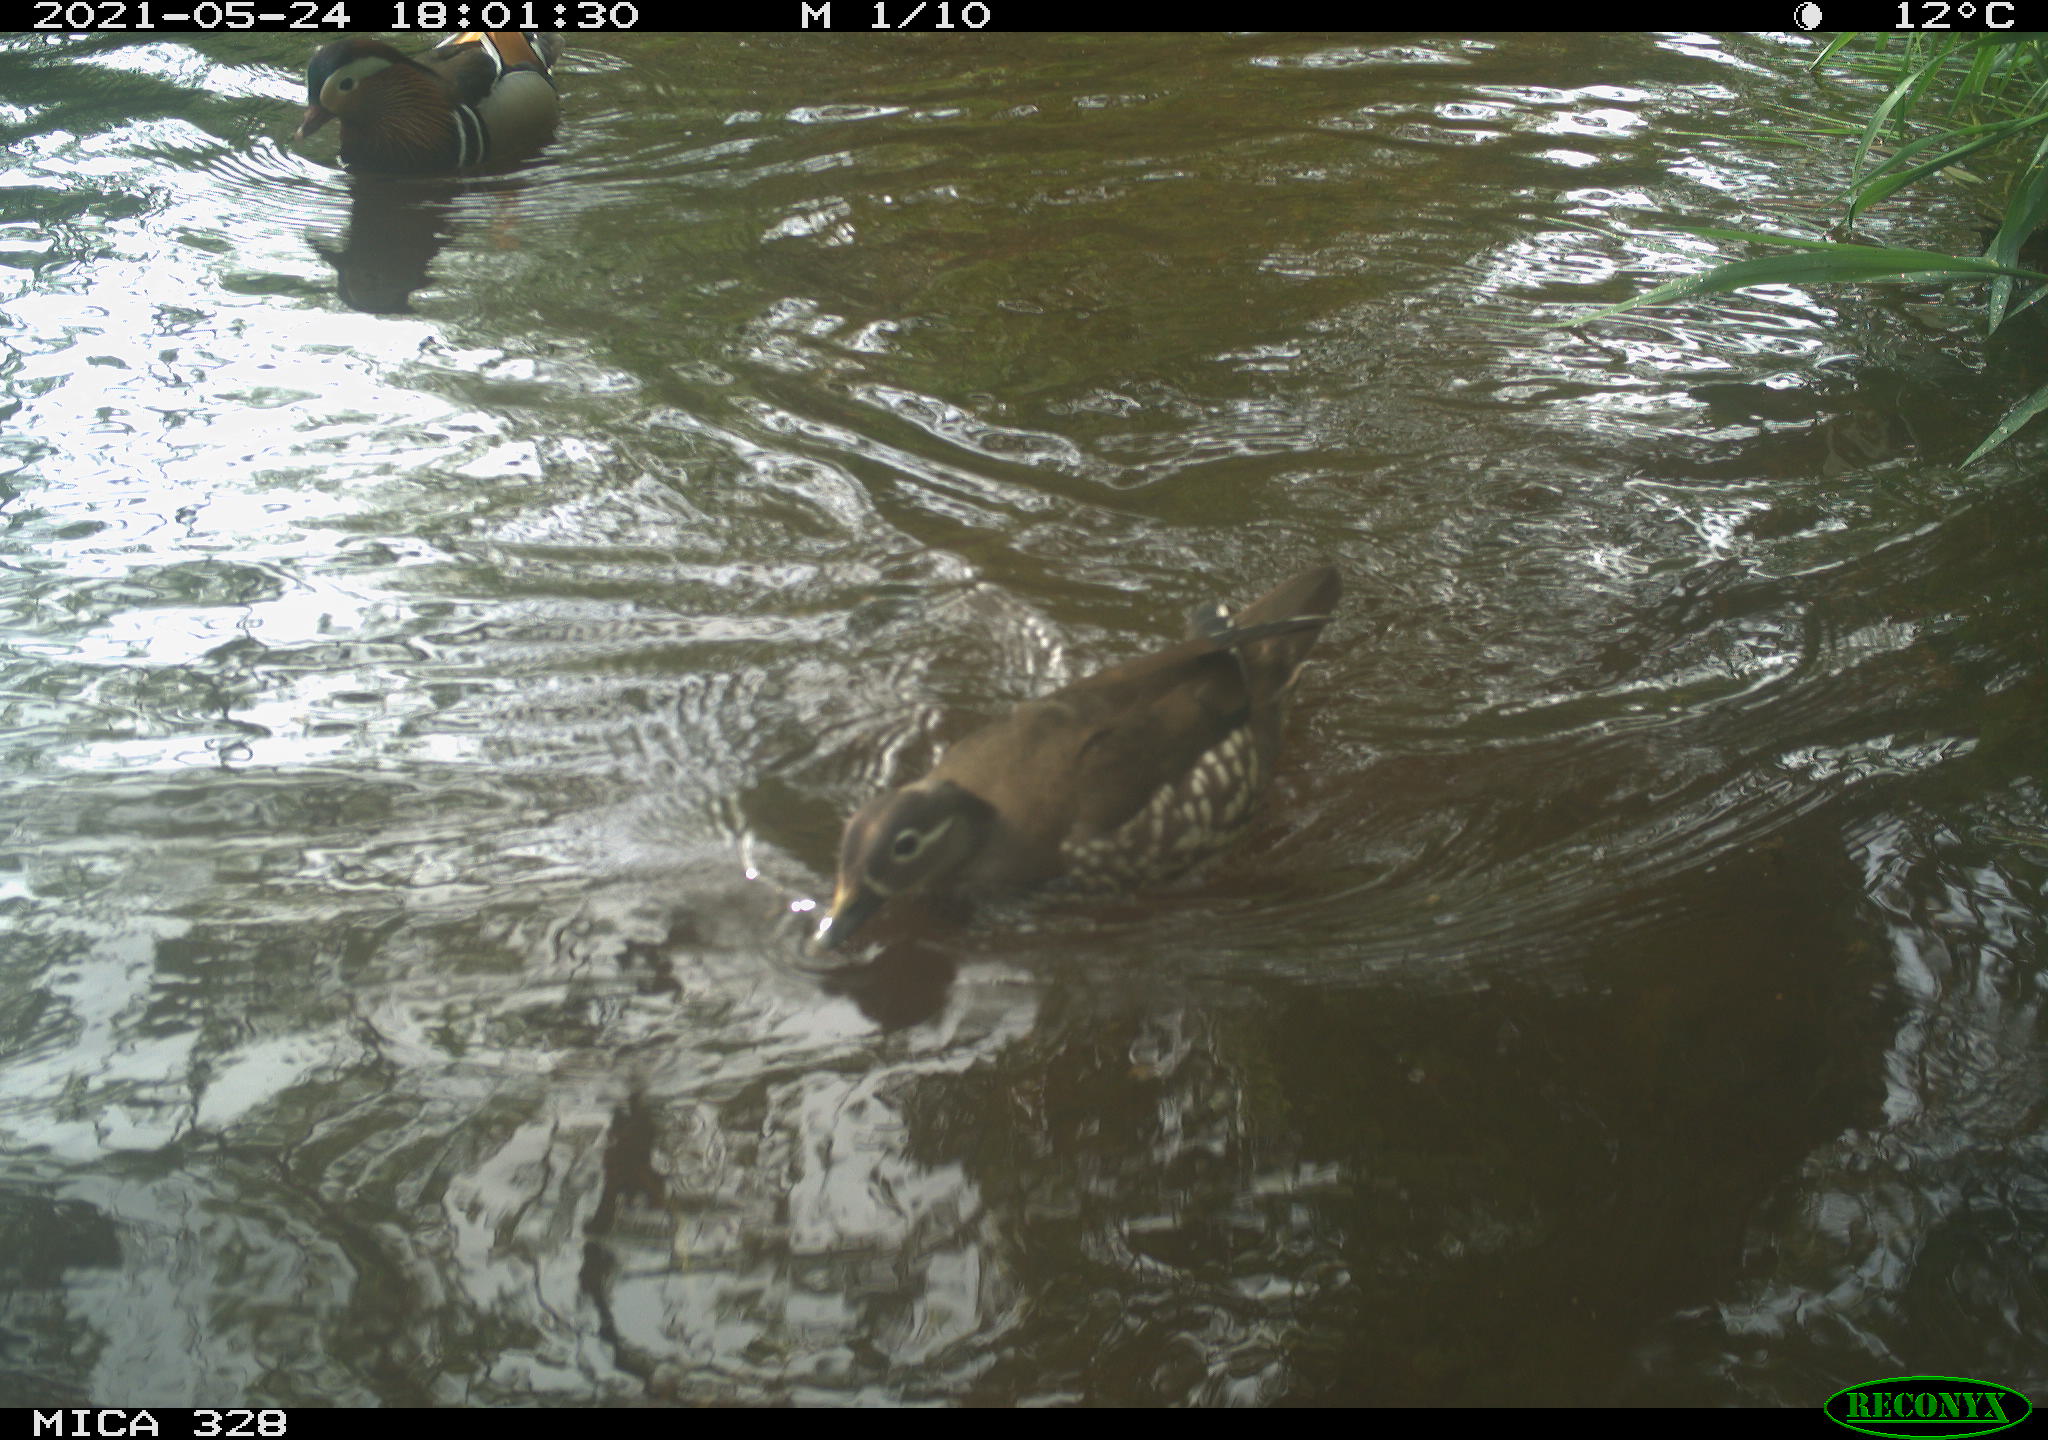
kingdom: Animalia
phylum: Chordata
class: Aves
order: Anseriformes
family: Anatidae
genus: Aix
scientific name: Aix galericulata
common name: Mandarin duck
